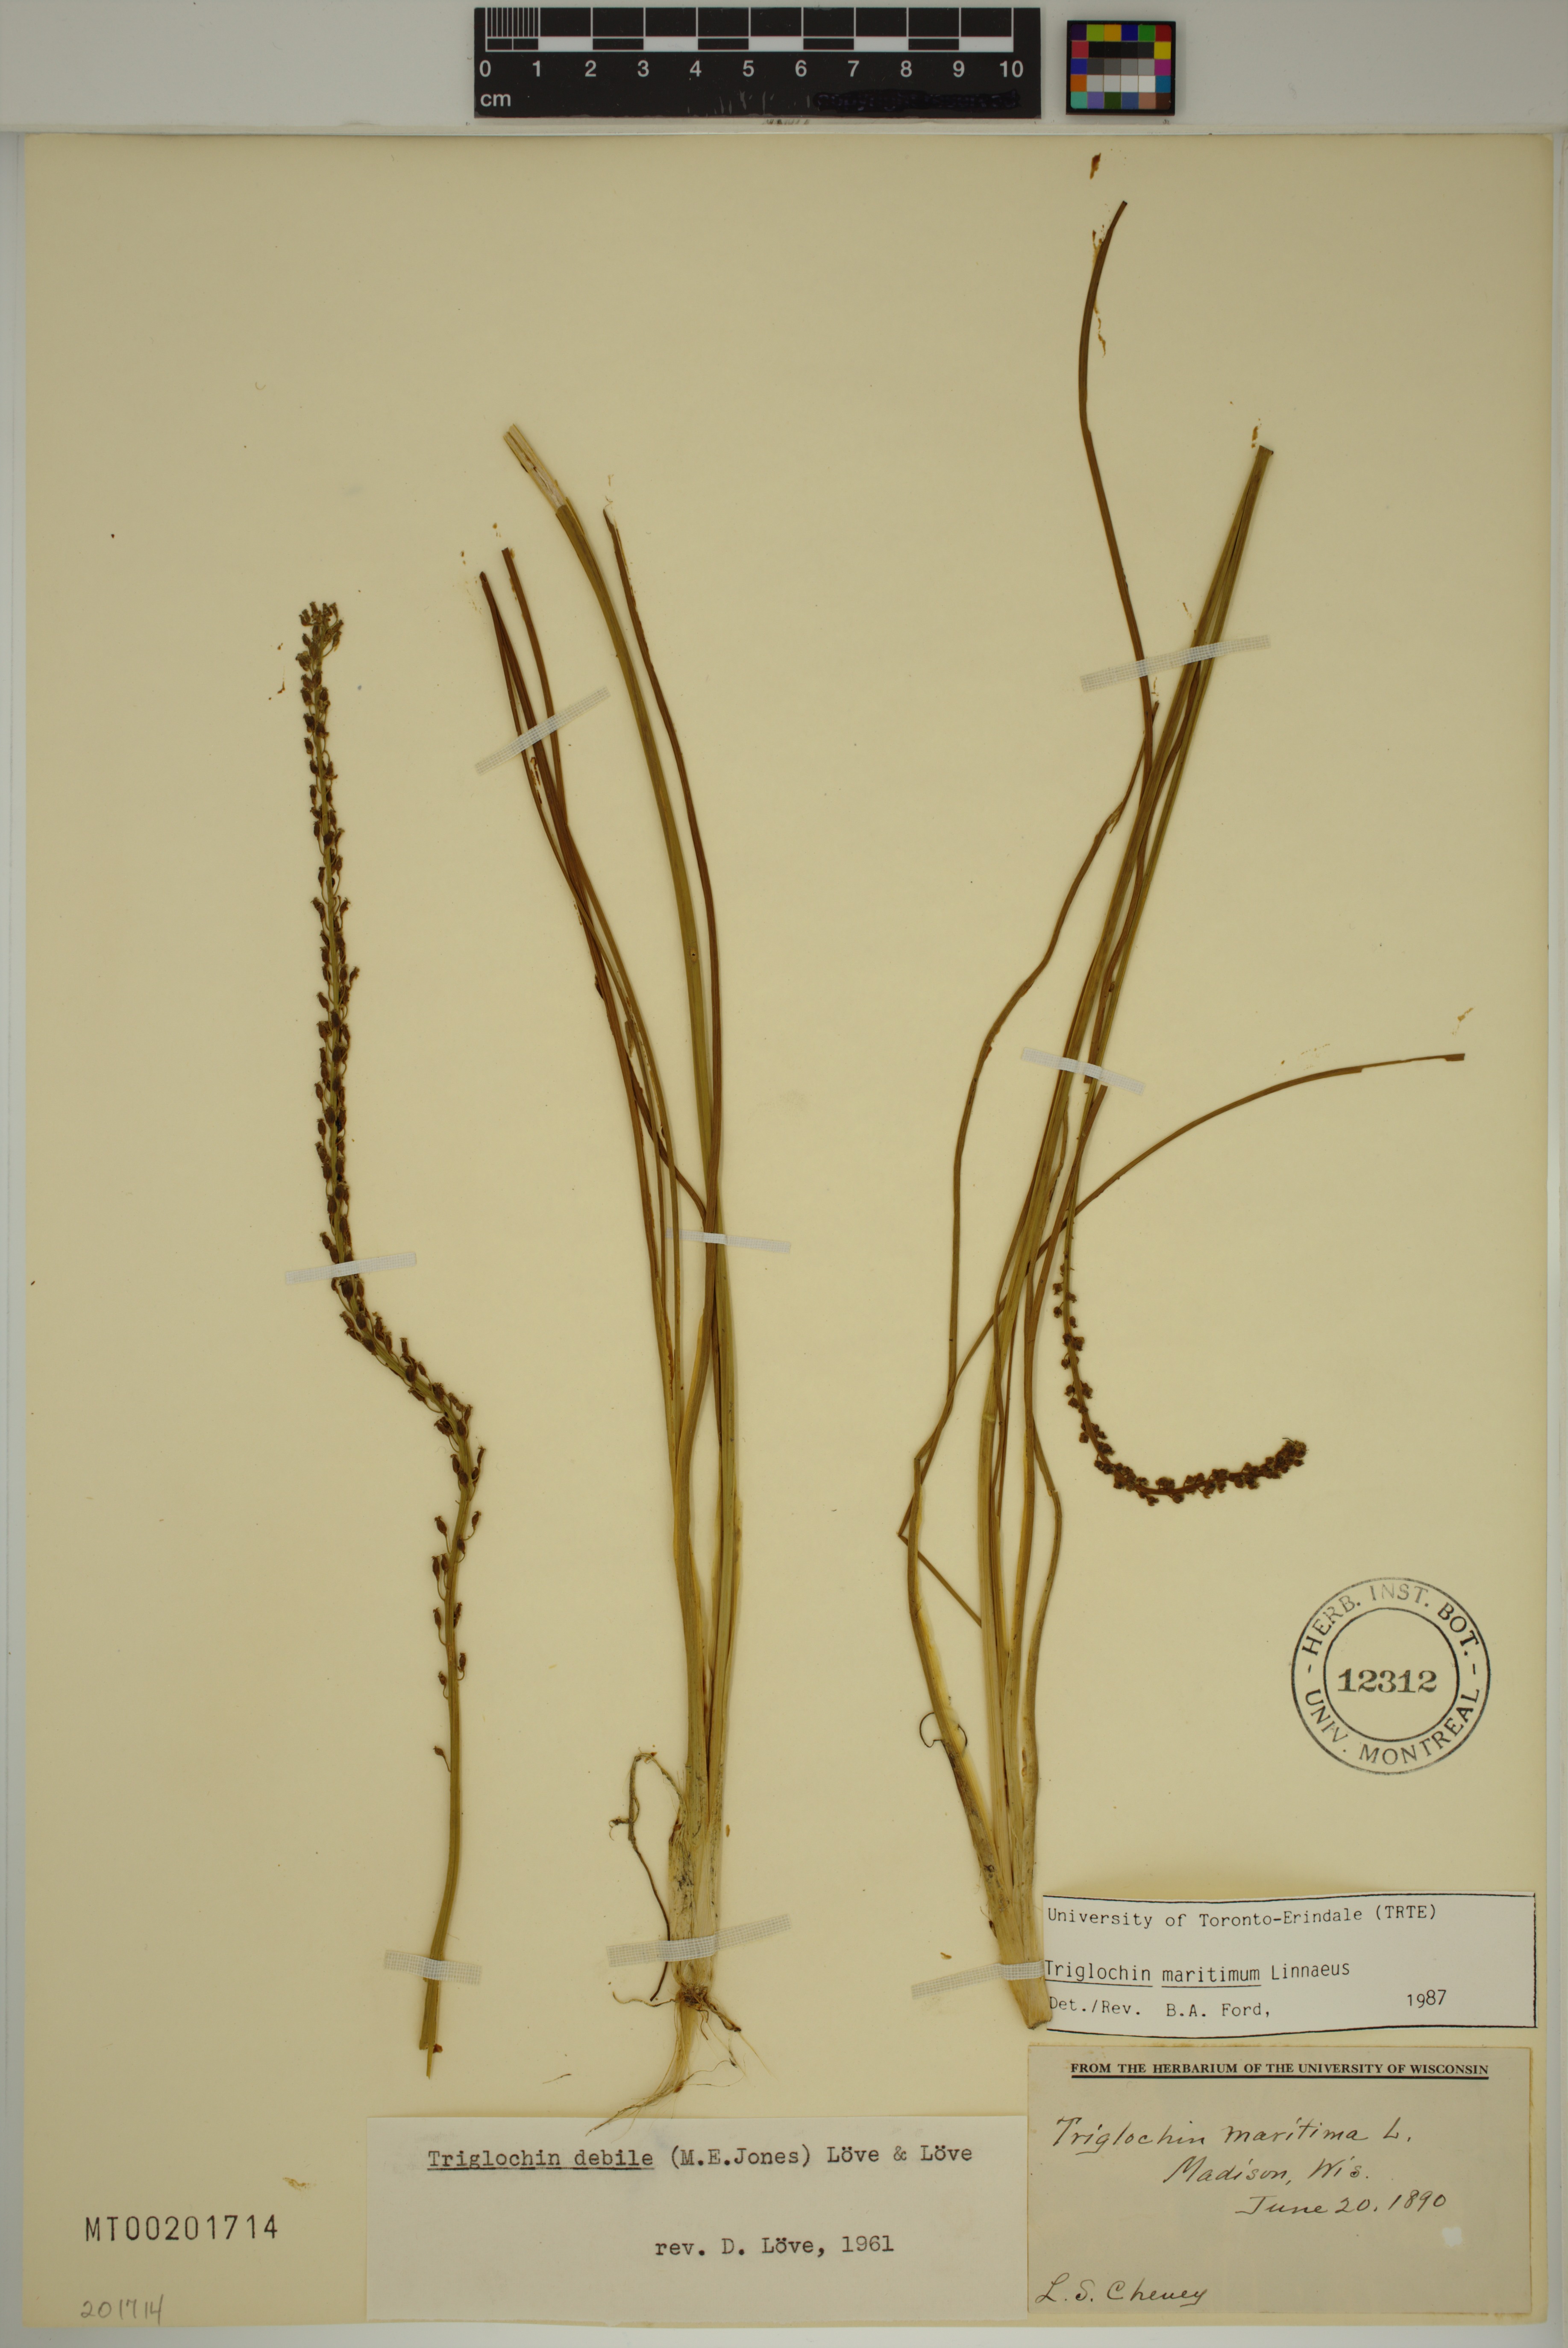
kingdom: Plantae
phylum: Tracheophyta
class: Liliopsida
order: Alismatales
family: Juncaginaceae
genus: Triglochin
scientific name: Triglochin maritima
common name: Sea arrowgrass
